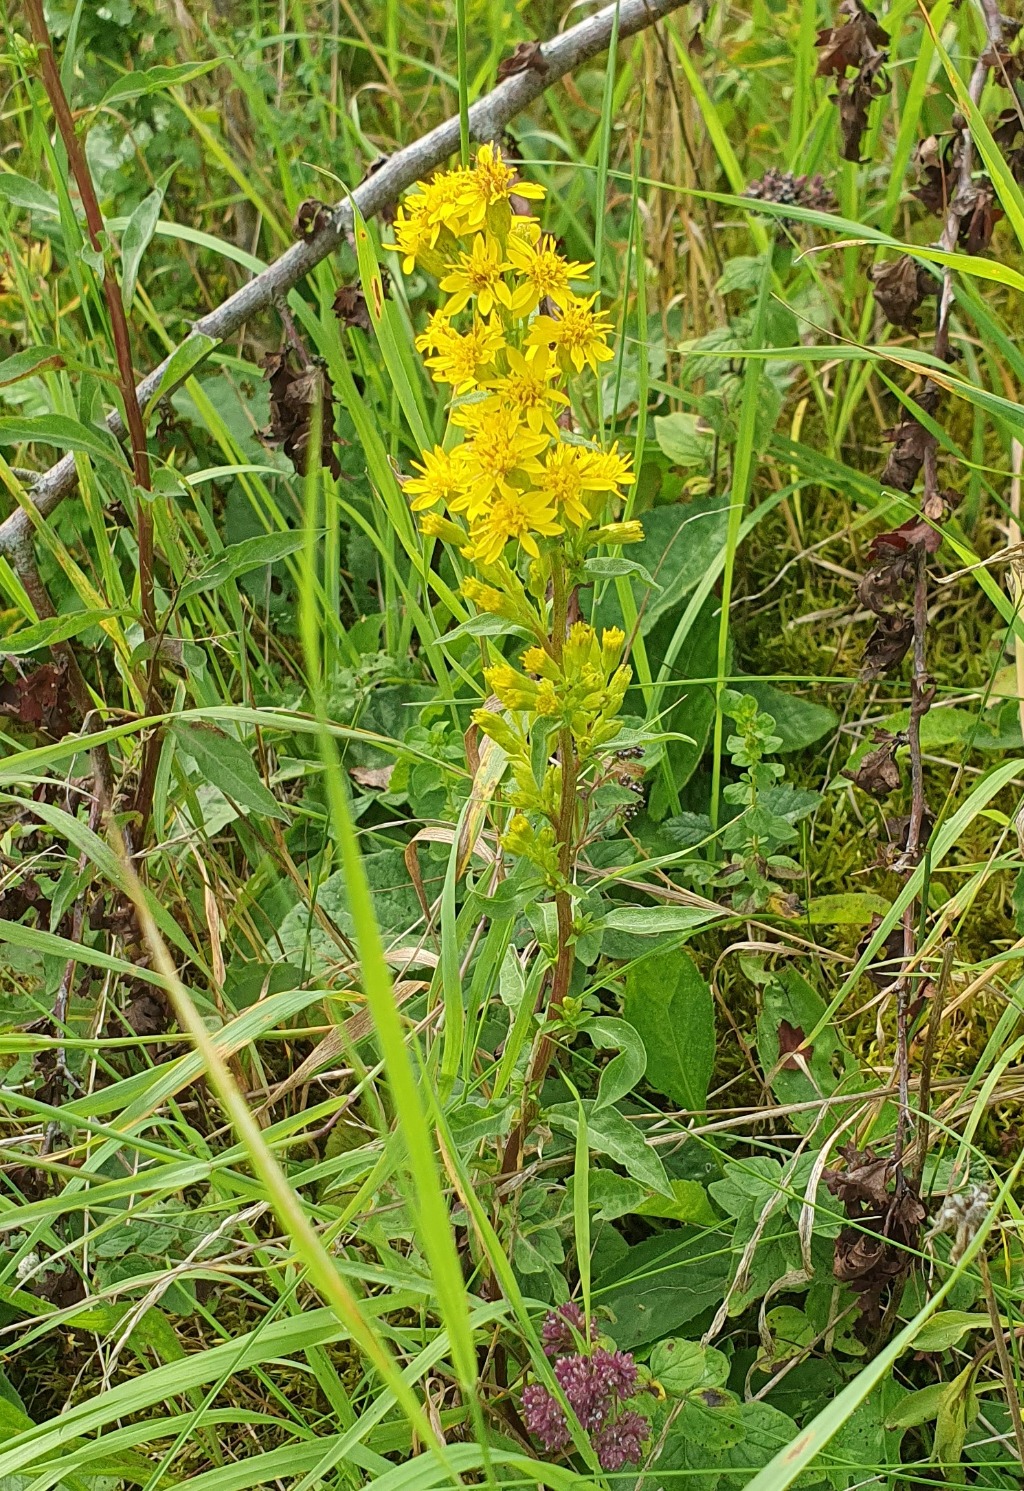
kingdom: Plantae
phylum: Tracheophyta
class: Magnoliopsida
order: Asterales
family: Asteraceae
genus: Solidago
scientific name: Solidago virgaurea
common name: Almindelig gyldenris
